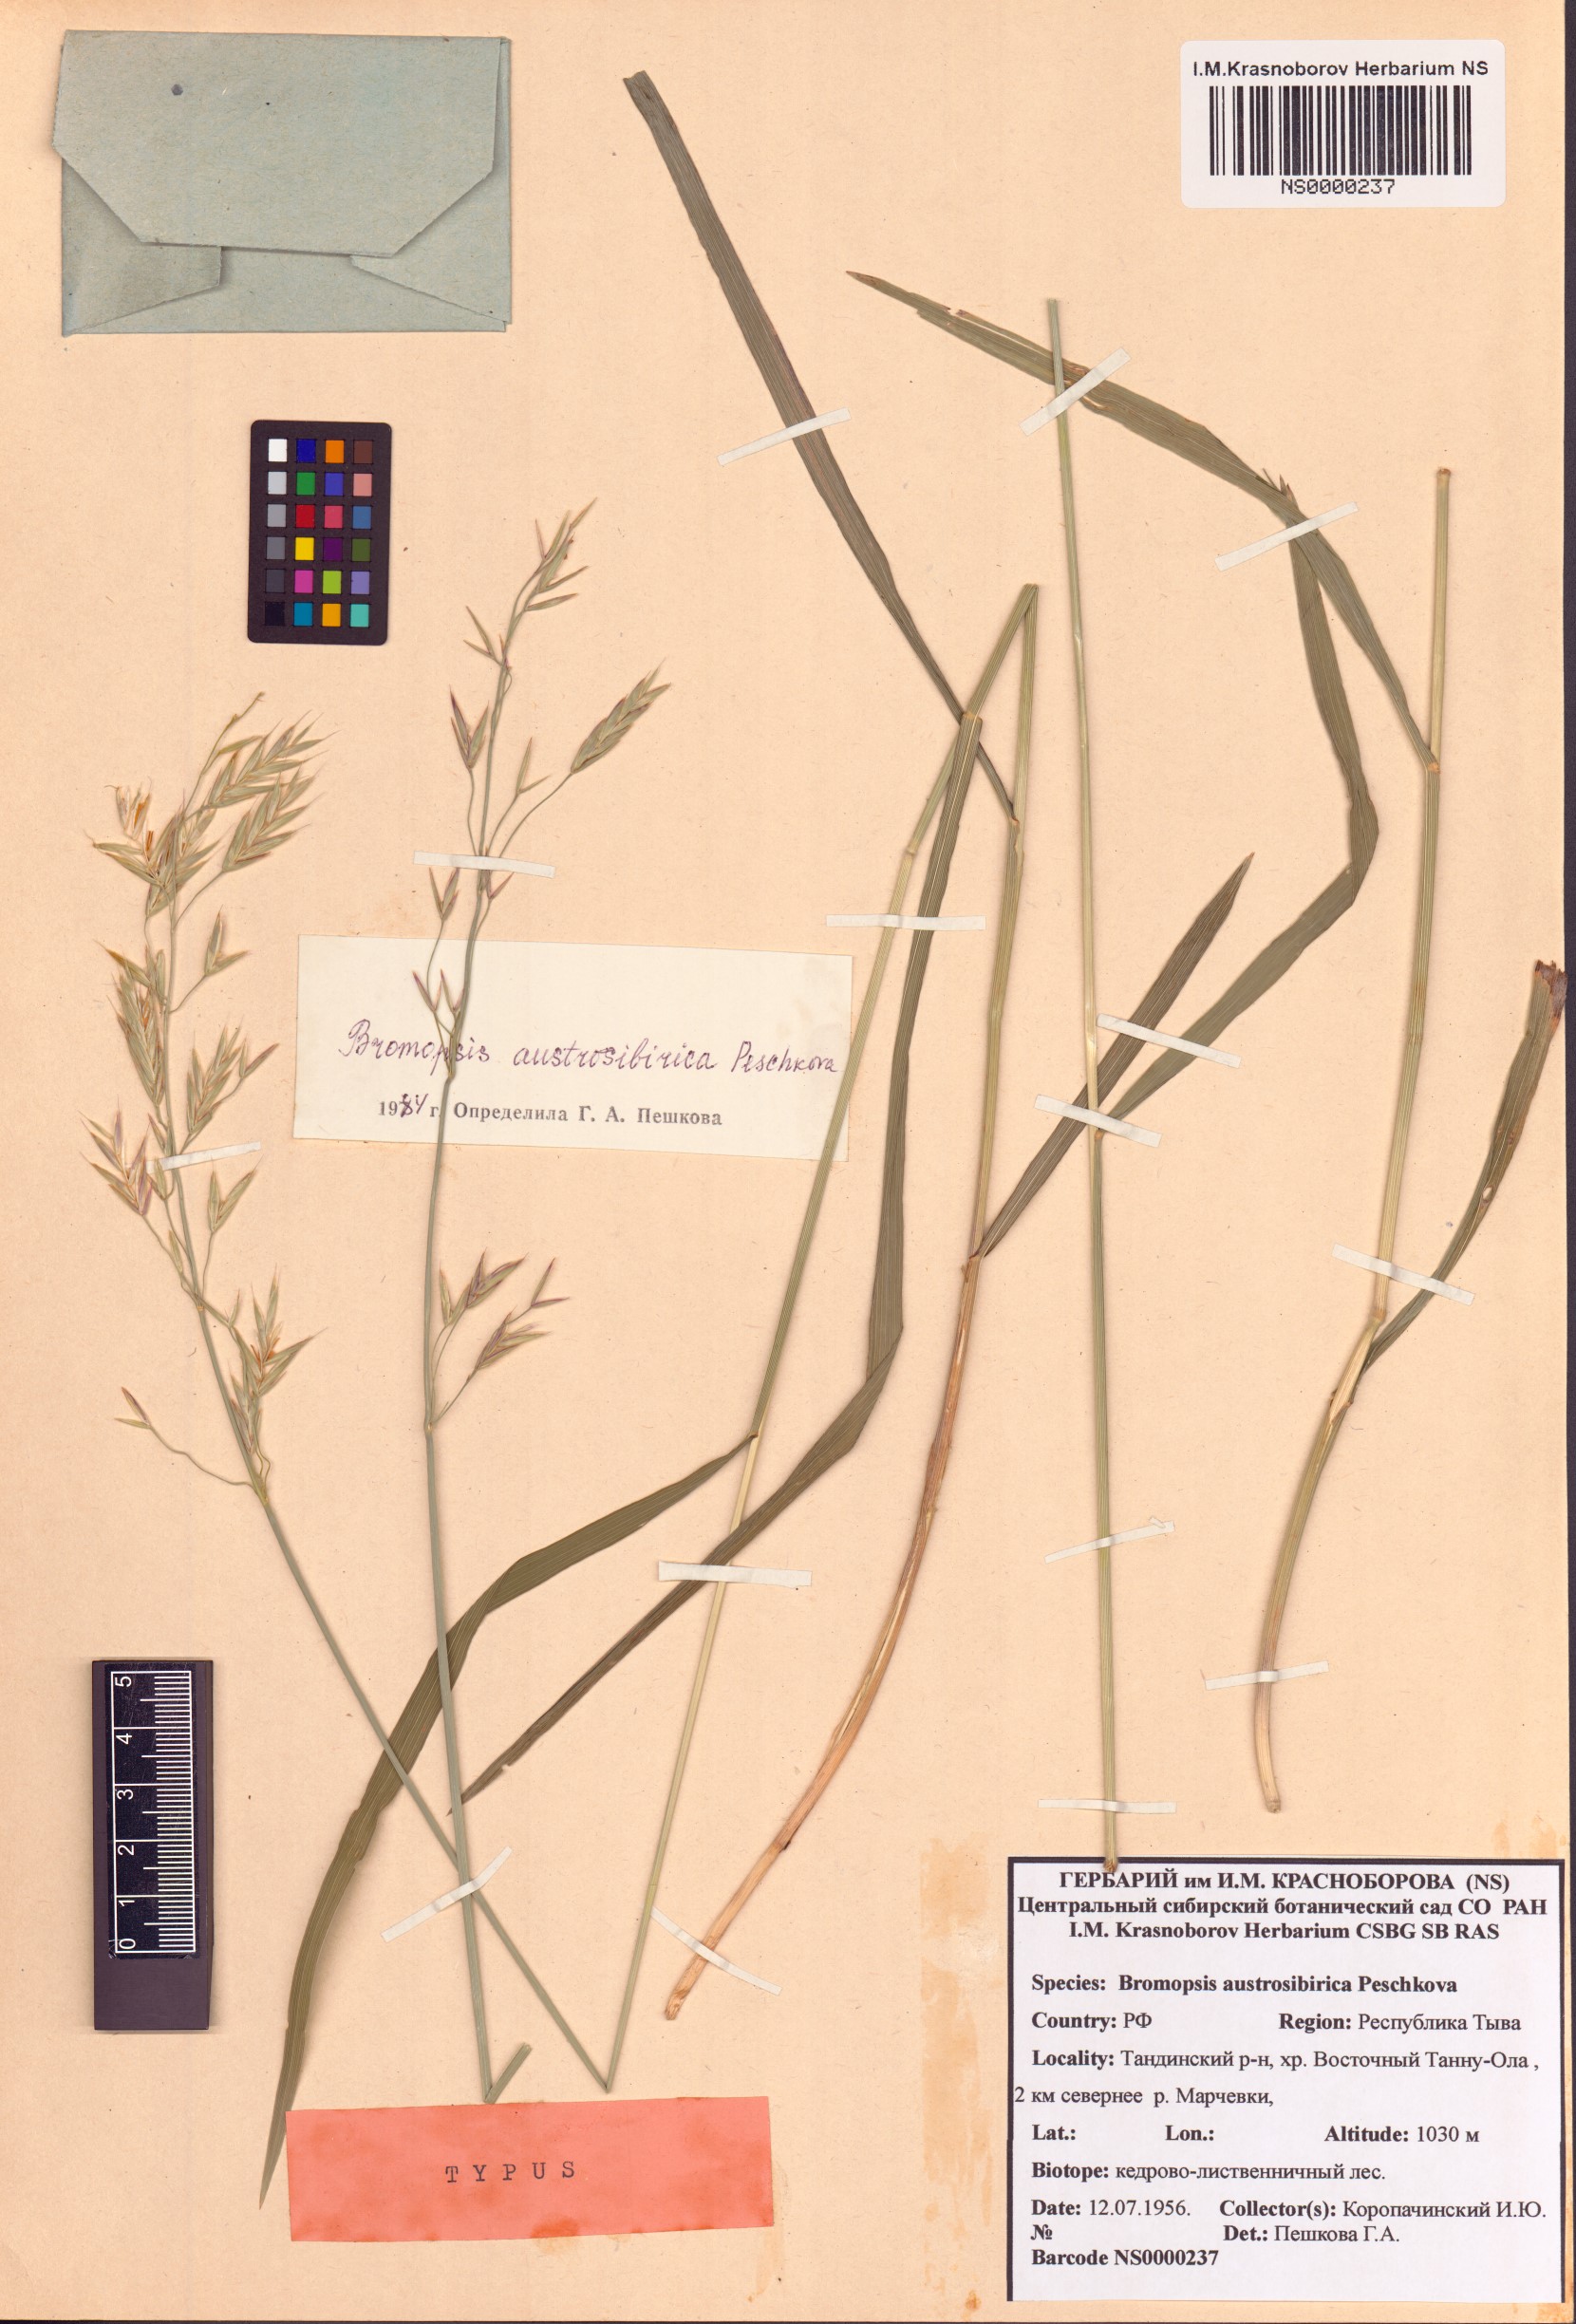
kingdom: Plantae
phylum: Tracheophyta
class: Liliopsida
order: Poales
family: Poaceae
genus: Bromus
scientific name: Bromus pumpellianus
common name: Pumpelly's brome
